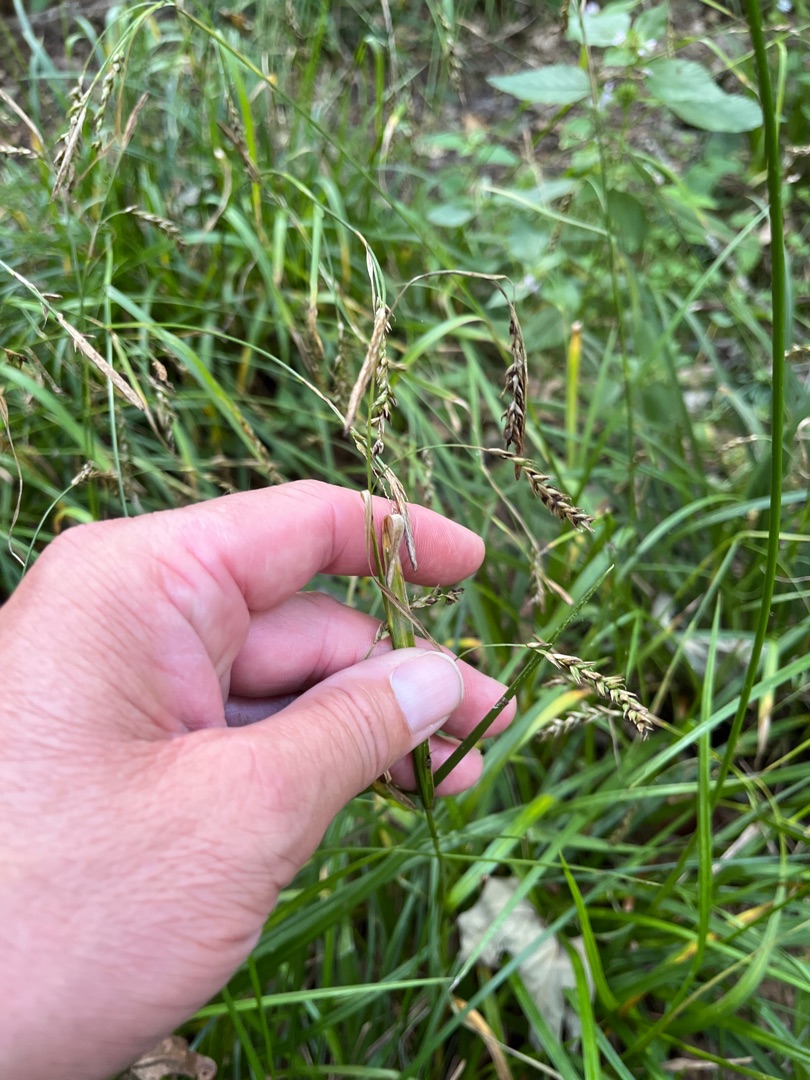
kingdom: Plantae
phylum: Tracheophyta
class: Liliopsida
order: Poales
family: Cyperaceae
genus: Carex
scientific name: Carex sylvatica
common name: Skov-star
